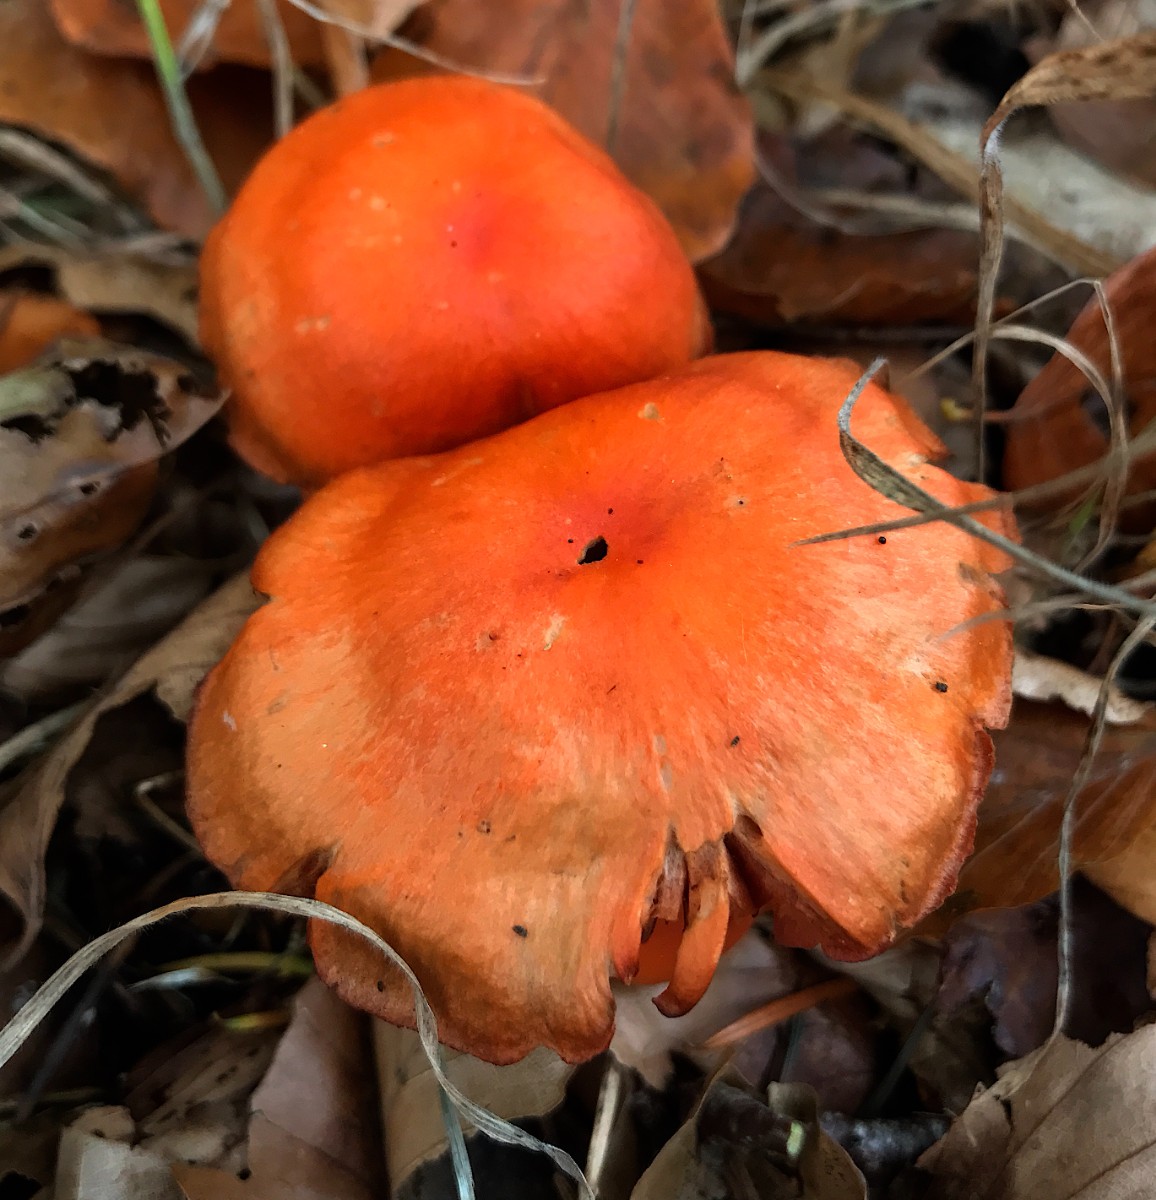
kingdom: Fungi
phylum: Basidiomycota
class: Agaricomycetes
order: Agaricales
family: Cortinariaceae
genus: Cortinarius
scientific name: Cortinarius cinnabarinus
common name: cinnober-slørhat
